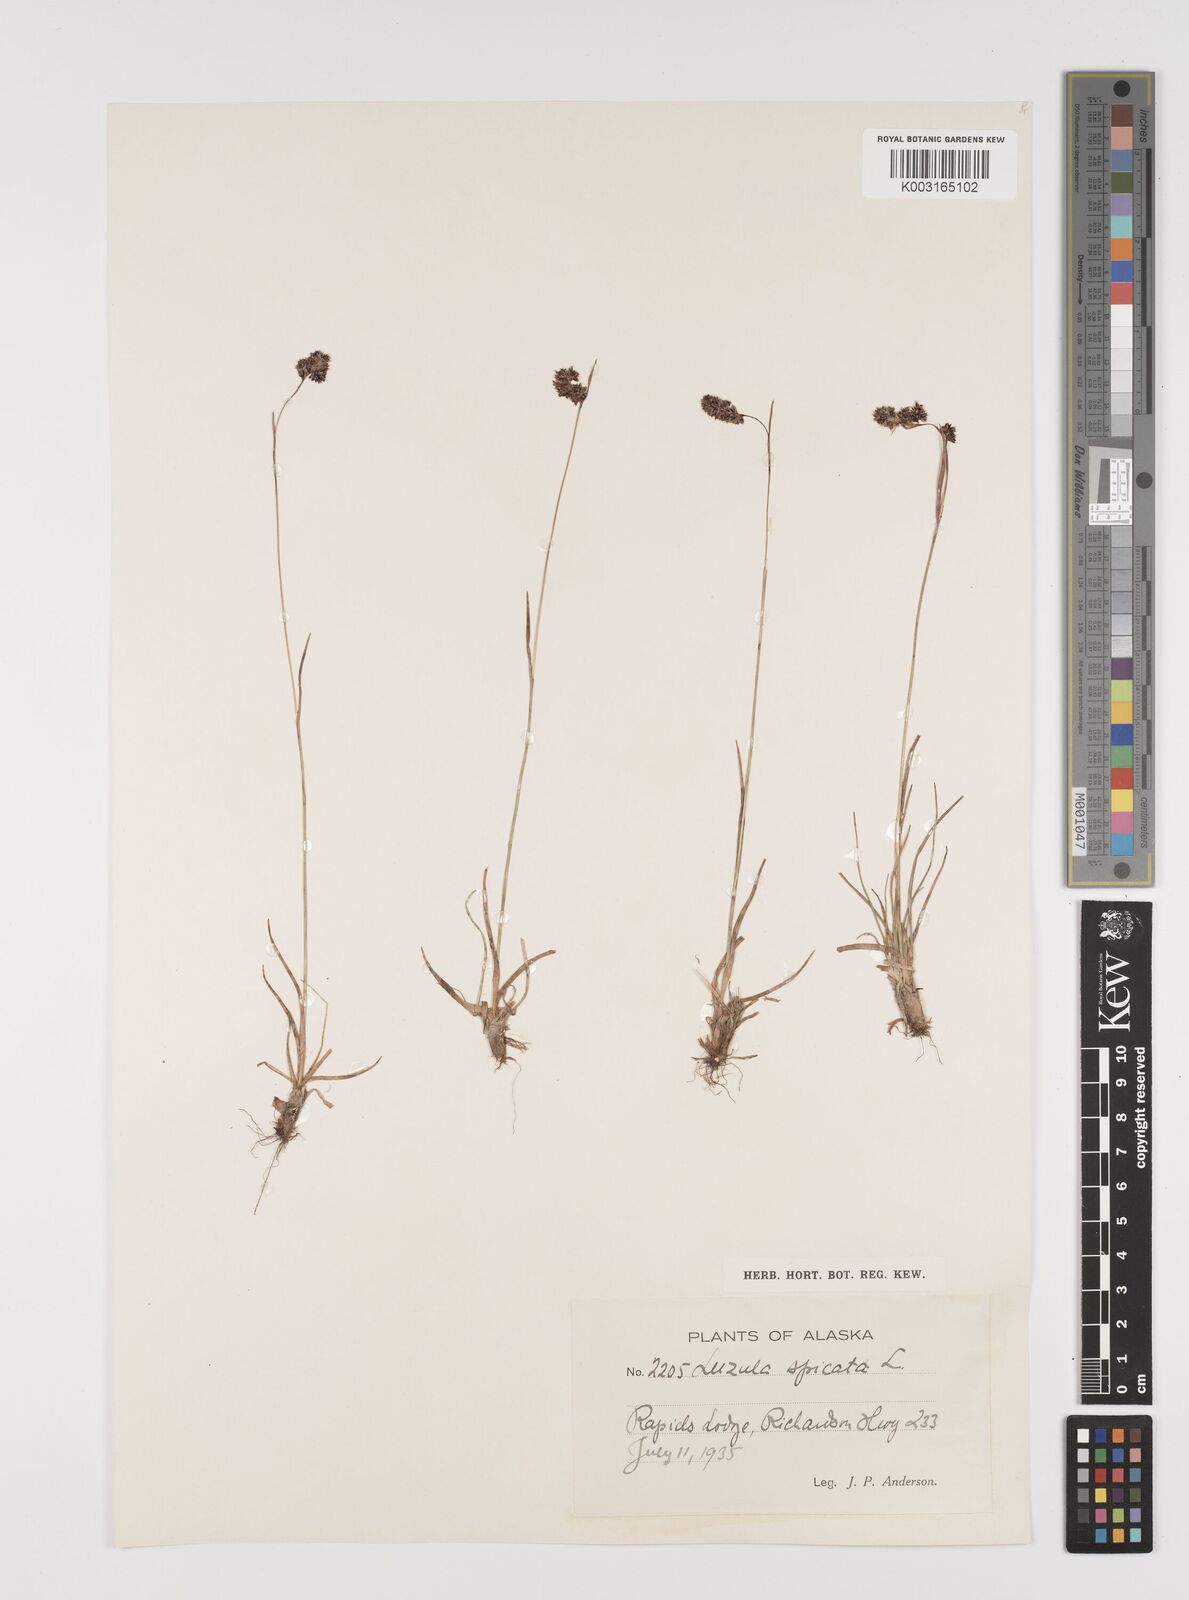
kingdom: Plantae
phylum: Tracheophyta
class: Liliopsida
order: Poales
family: Juncaceae
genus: Luzula
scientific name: Luzula spicata
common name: Spiked wood-rush
